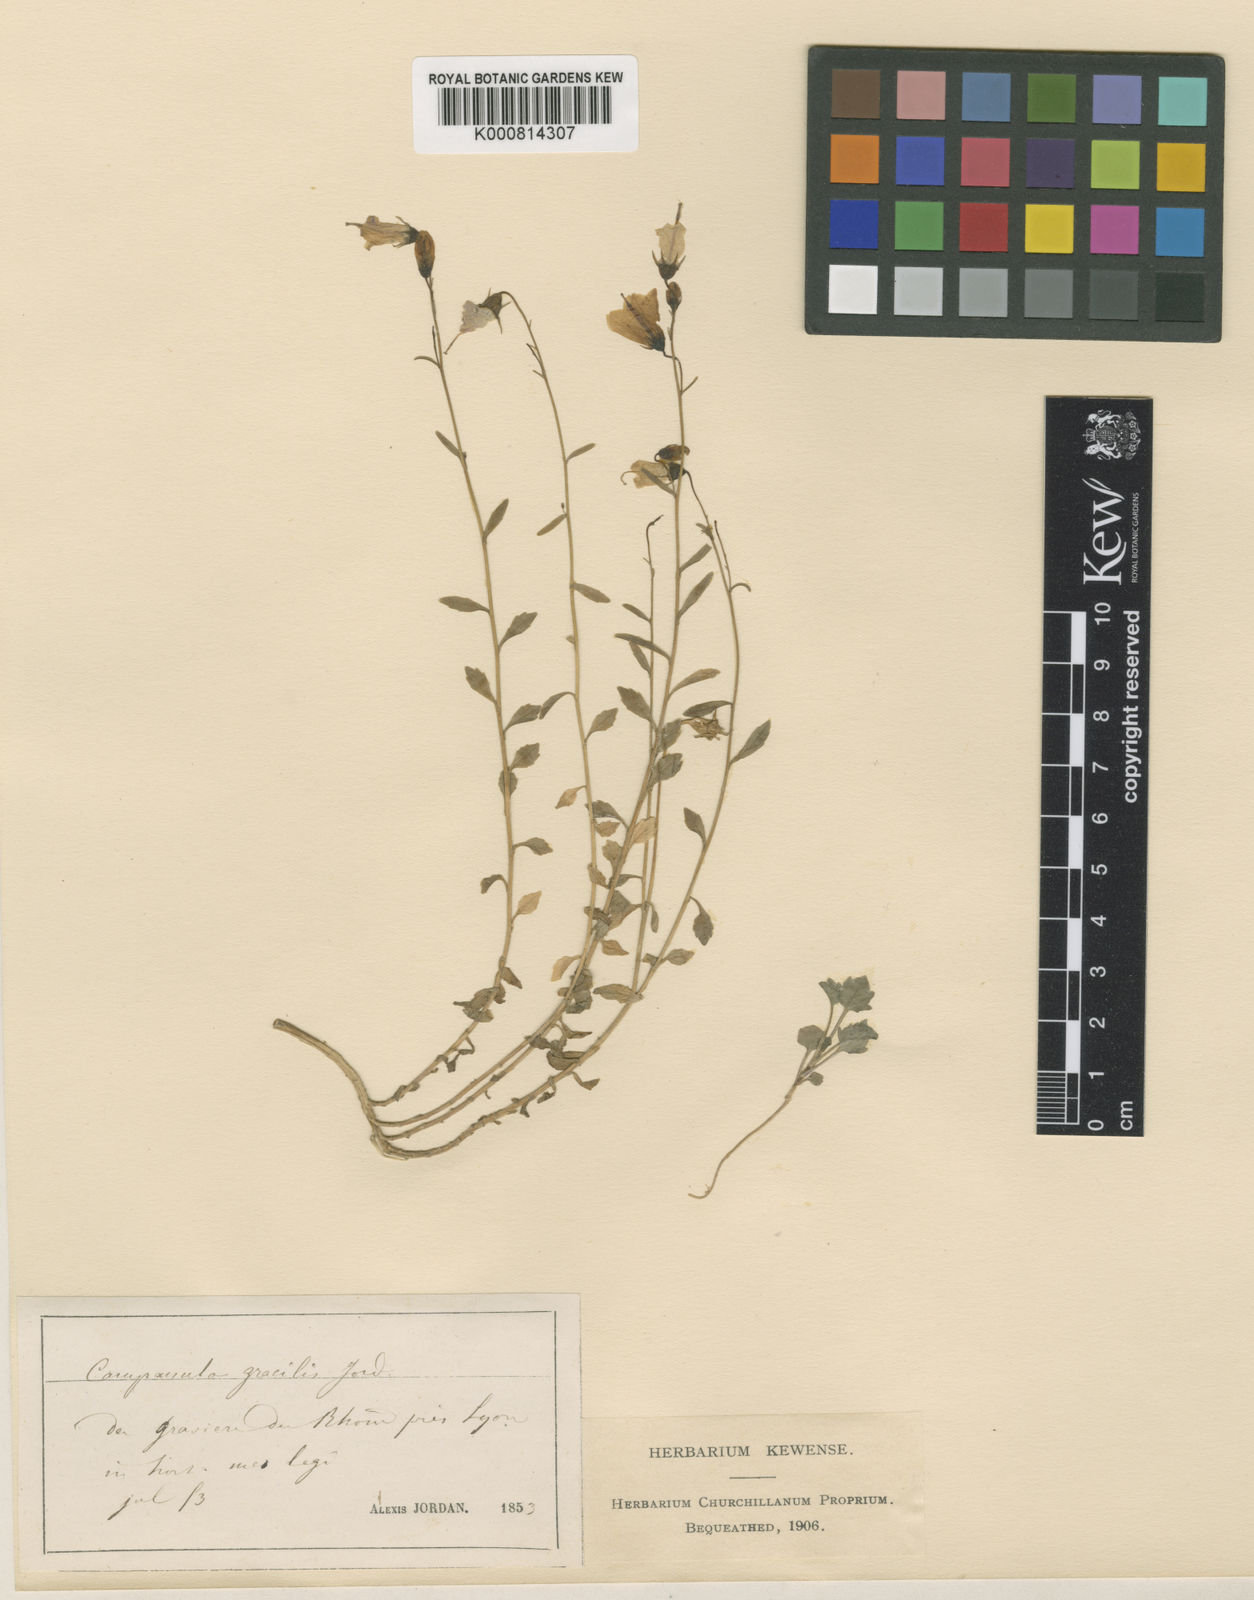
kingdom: Plantae
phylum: Tracheophyta
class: Magnoliopsida
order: Asterales
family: Campanulaceae
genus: Campanula
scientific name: Campanula cochleariifolia
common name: Fairies'-thimbles
